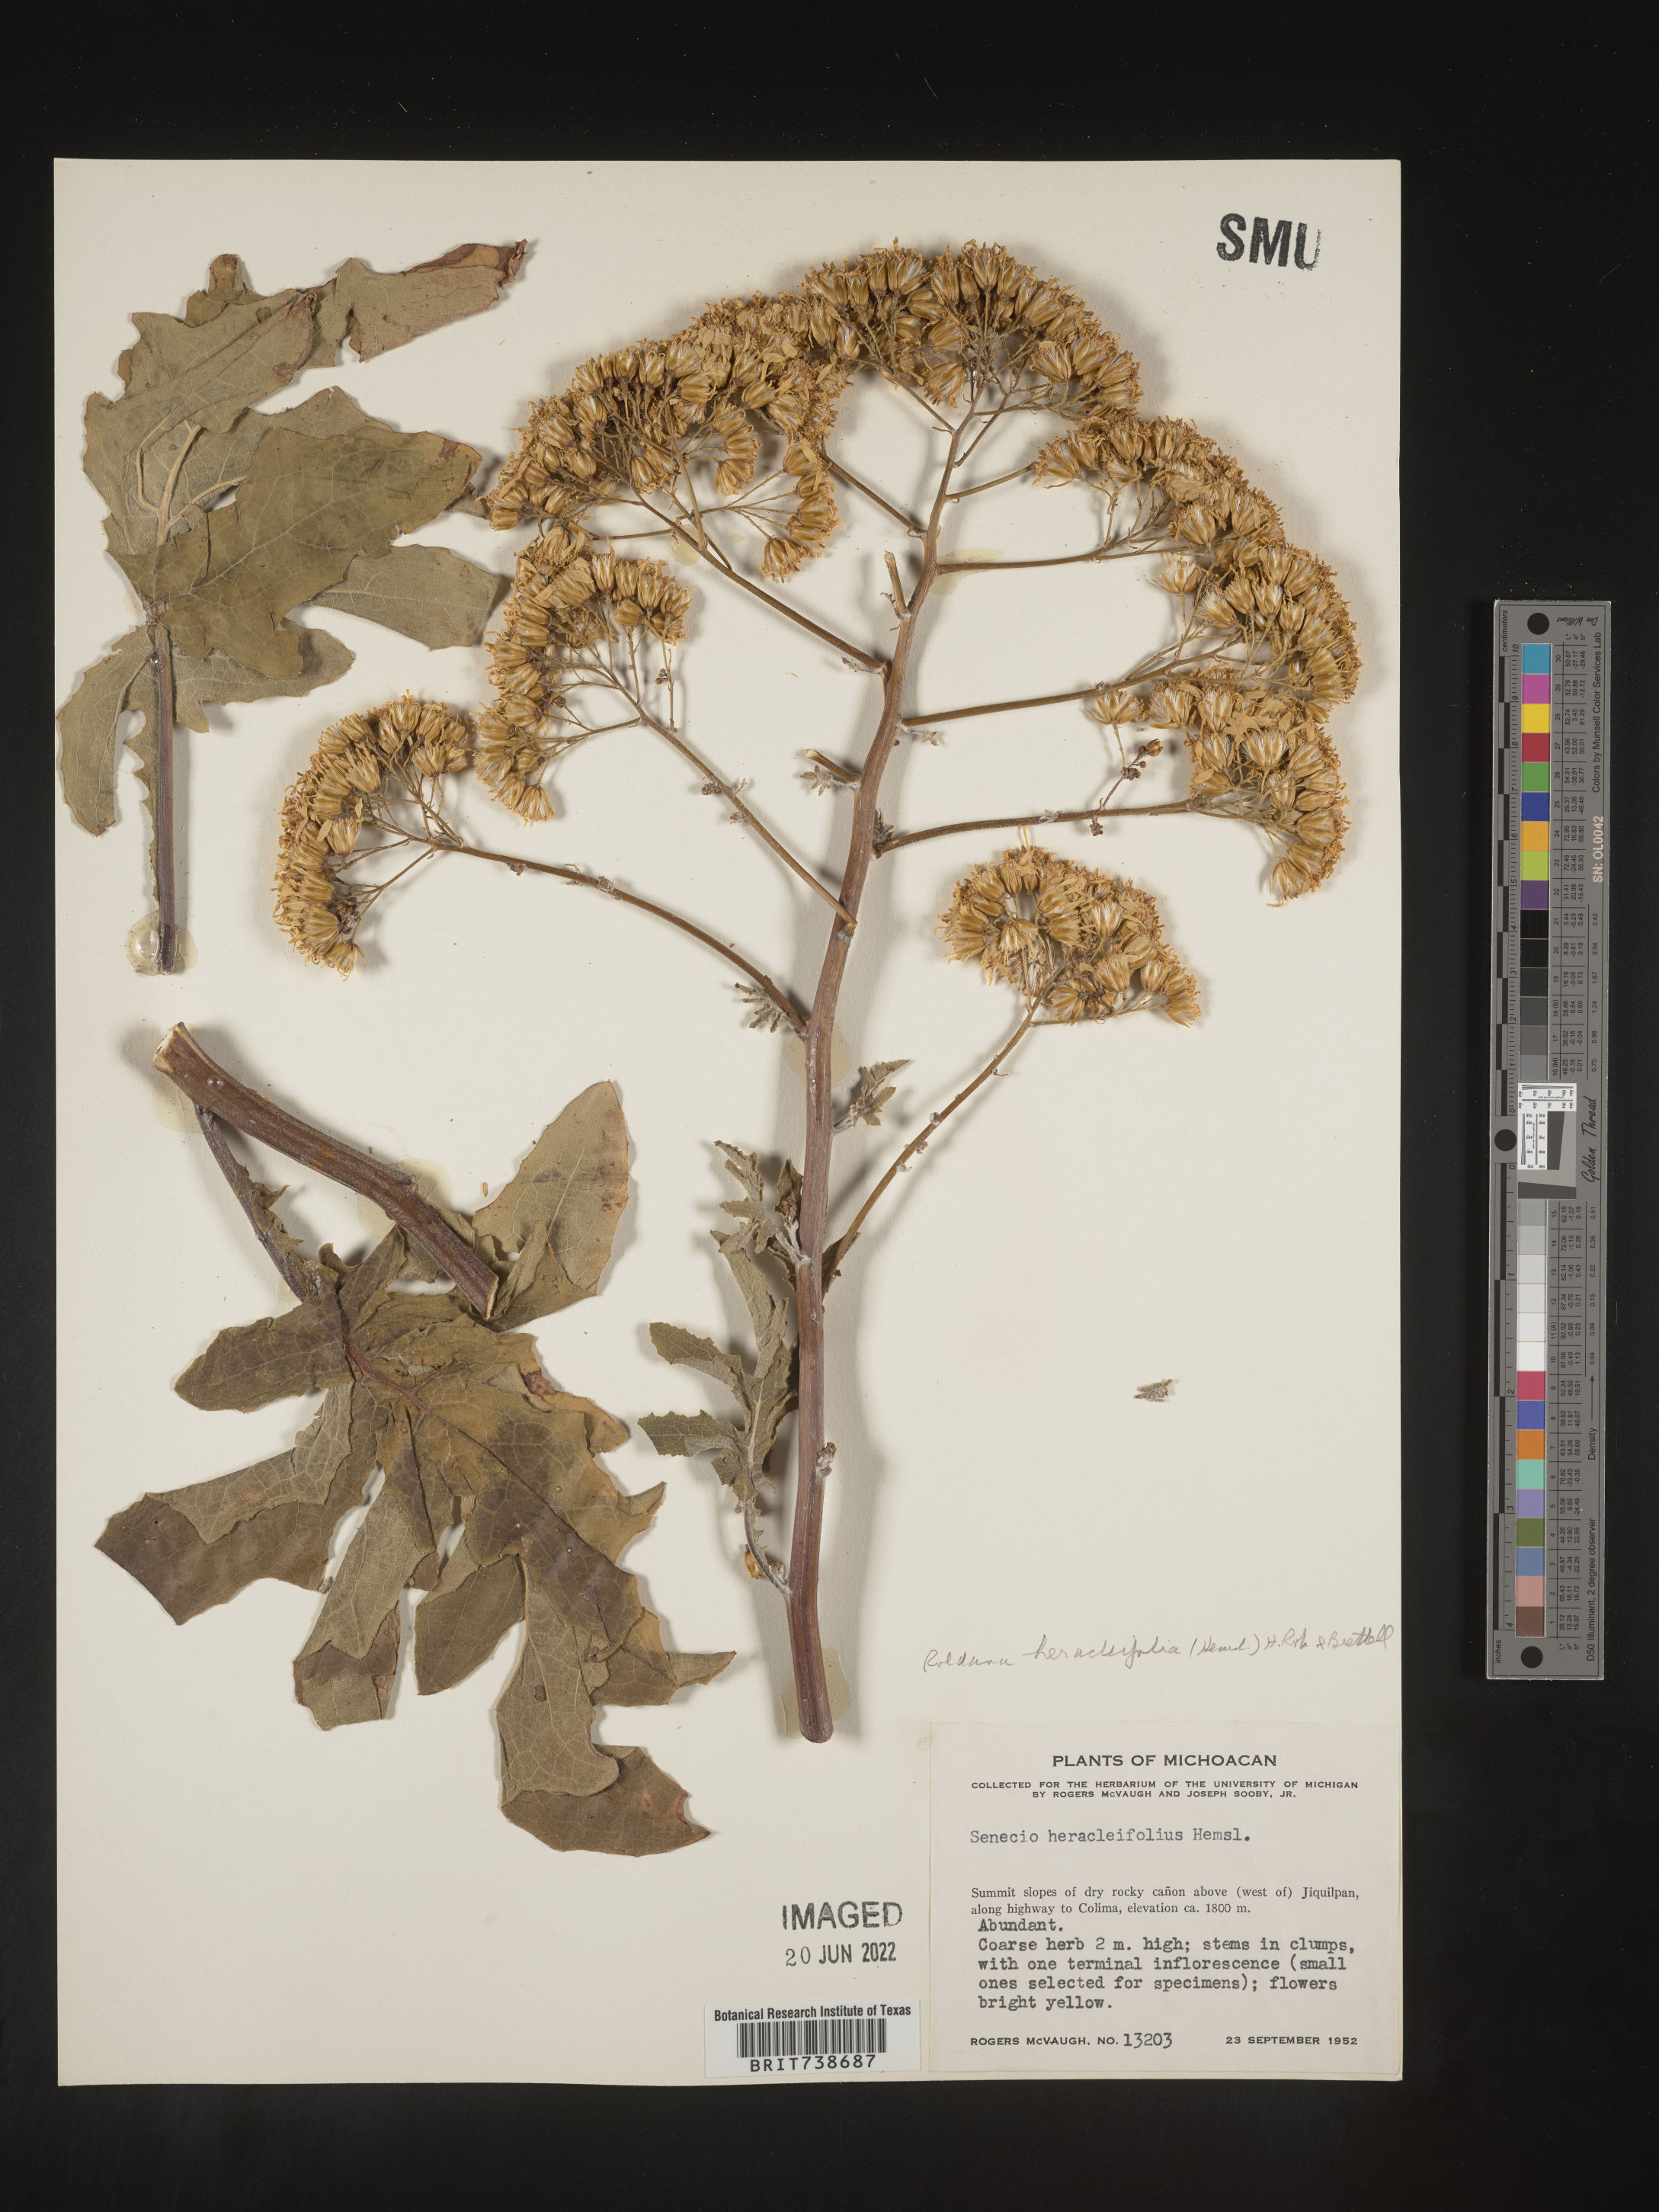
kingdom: Plantae
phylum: Tracheophyta
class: Magnoliopsida
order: Asterales
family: Asteraceae
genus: Roldana
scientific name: Roldana
